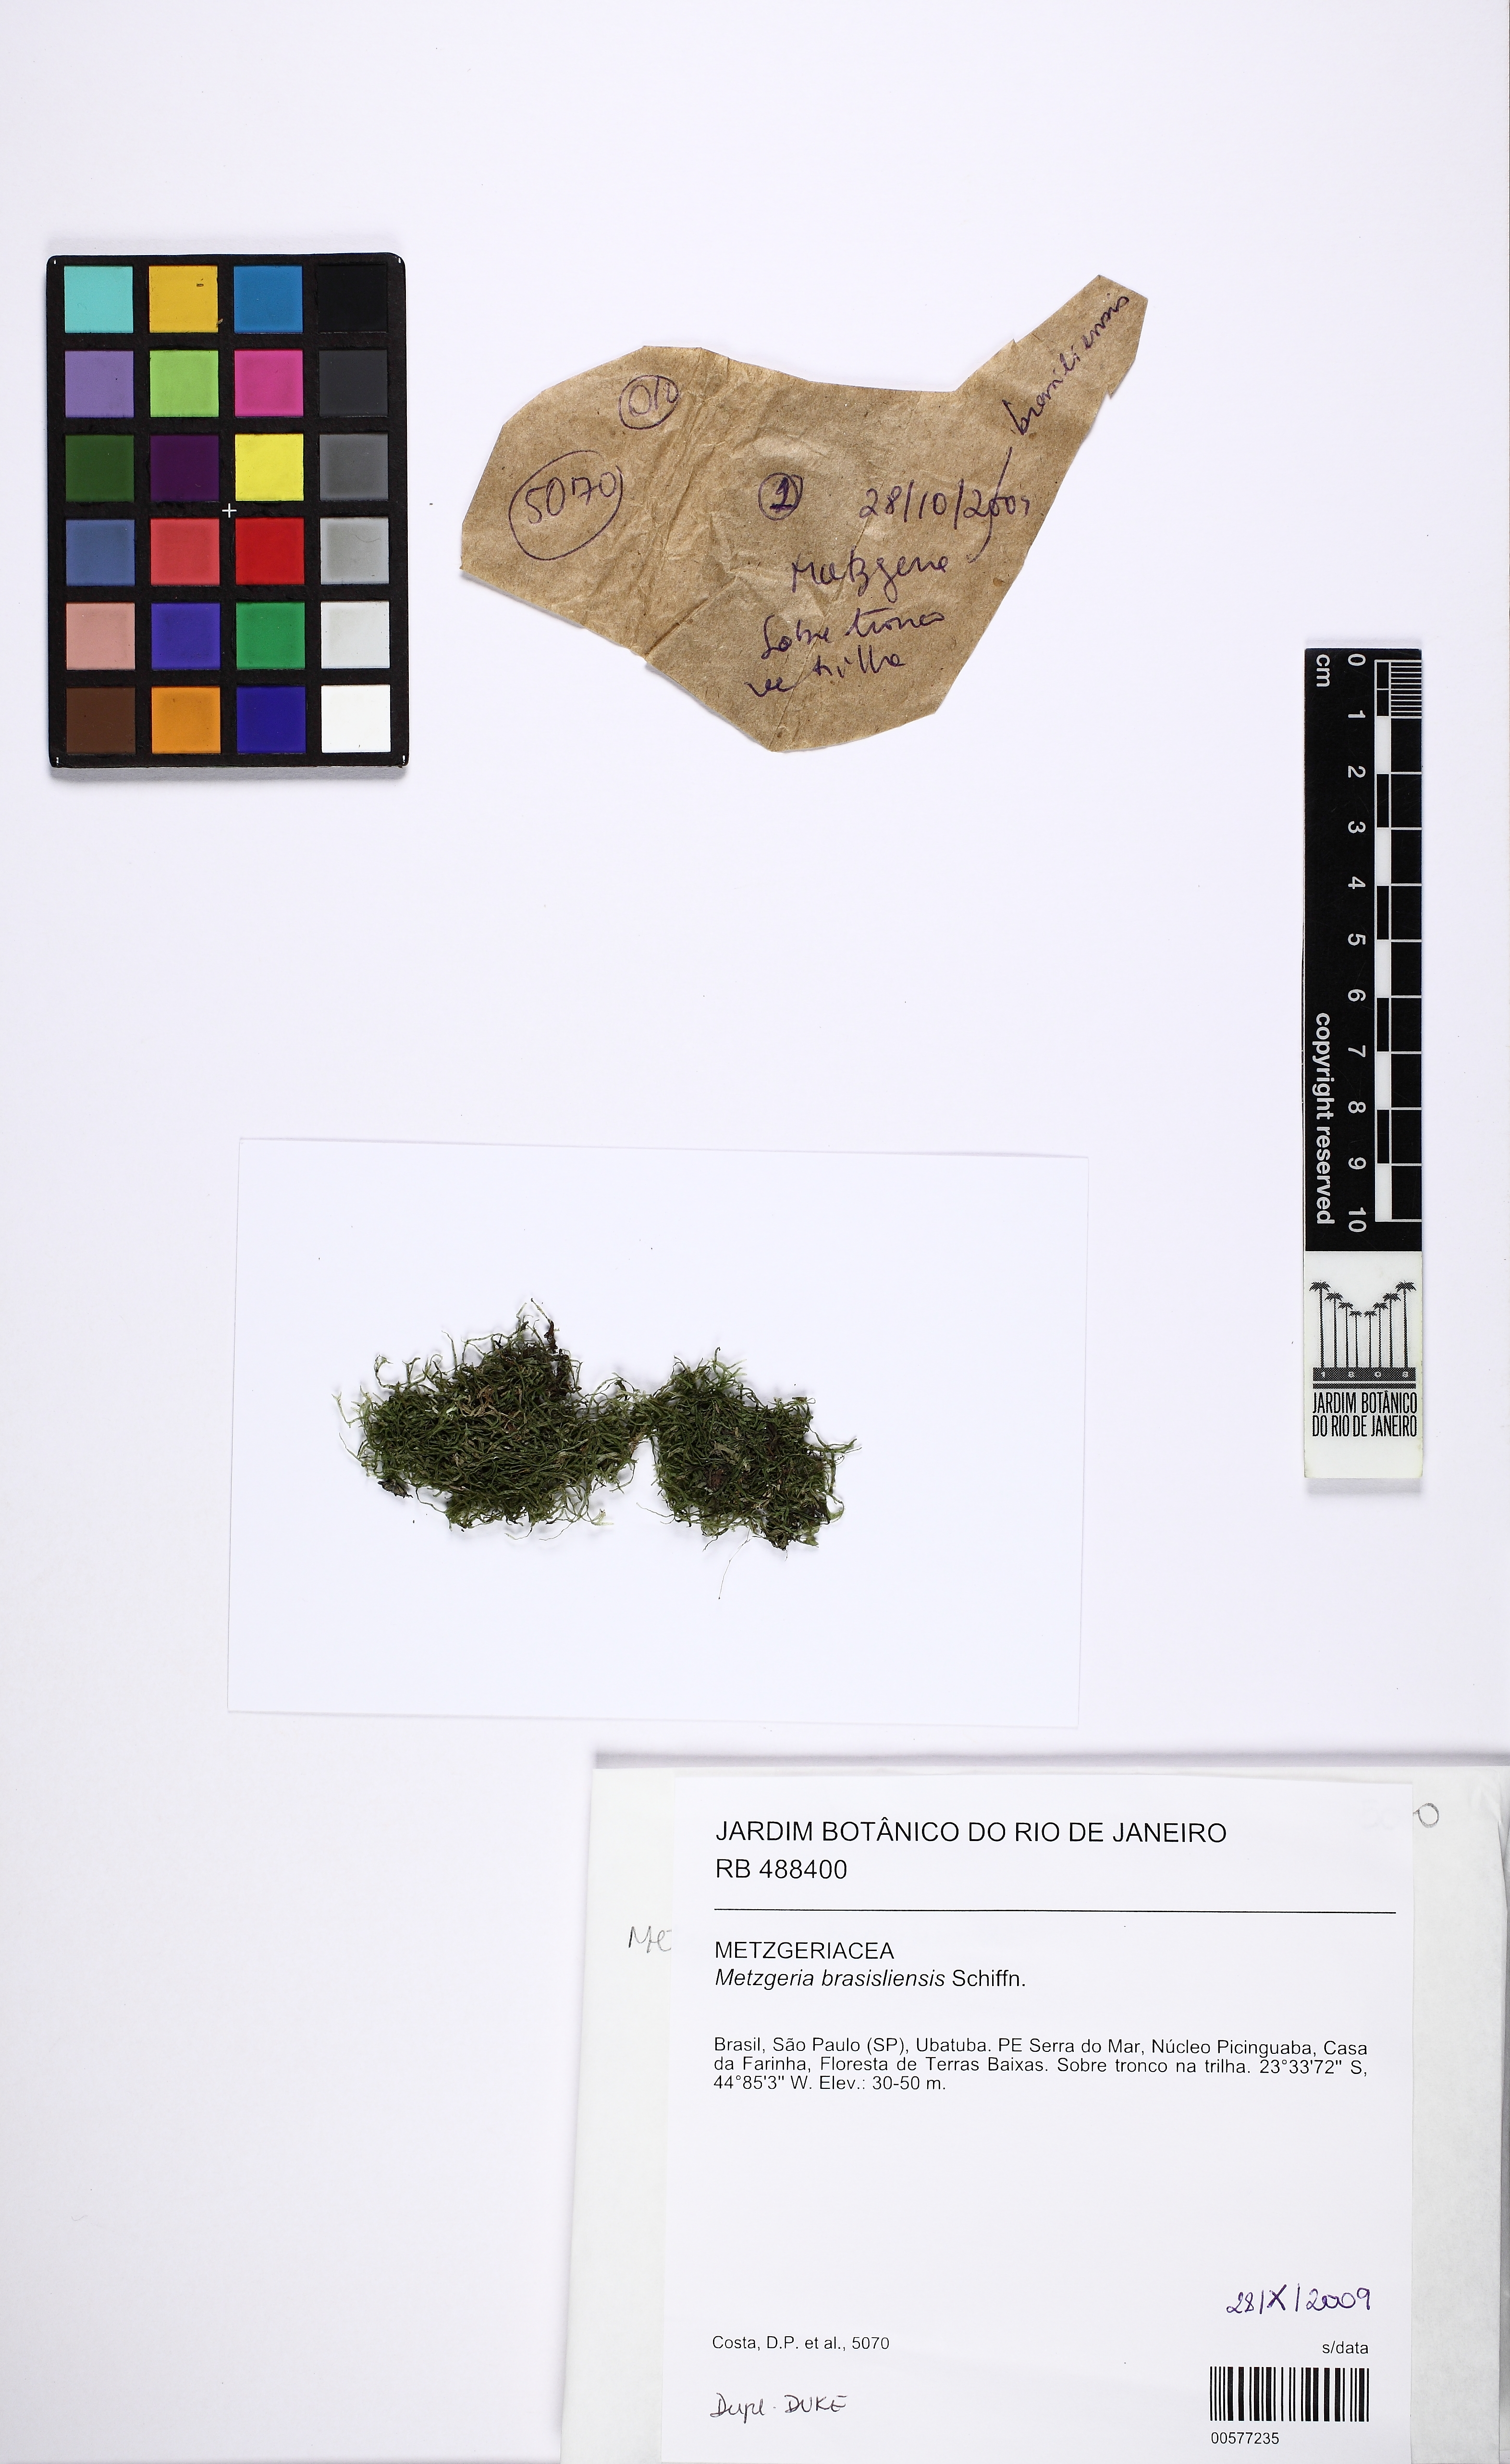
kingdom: Plantae
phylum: Marchantiophyta
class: Jungermanniopsida
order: Metzgeriales
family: Metzgeriaceae
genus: Metzgeria
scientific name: Metzgeria brasiliensis
